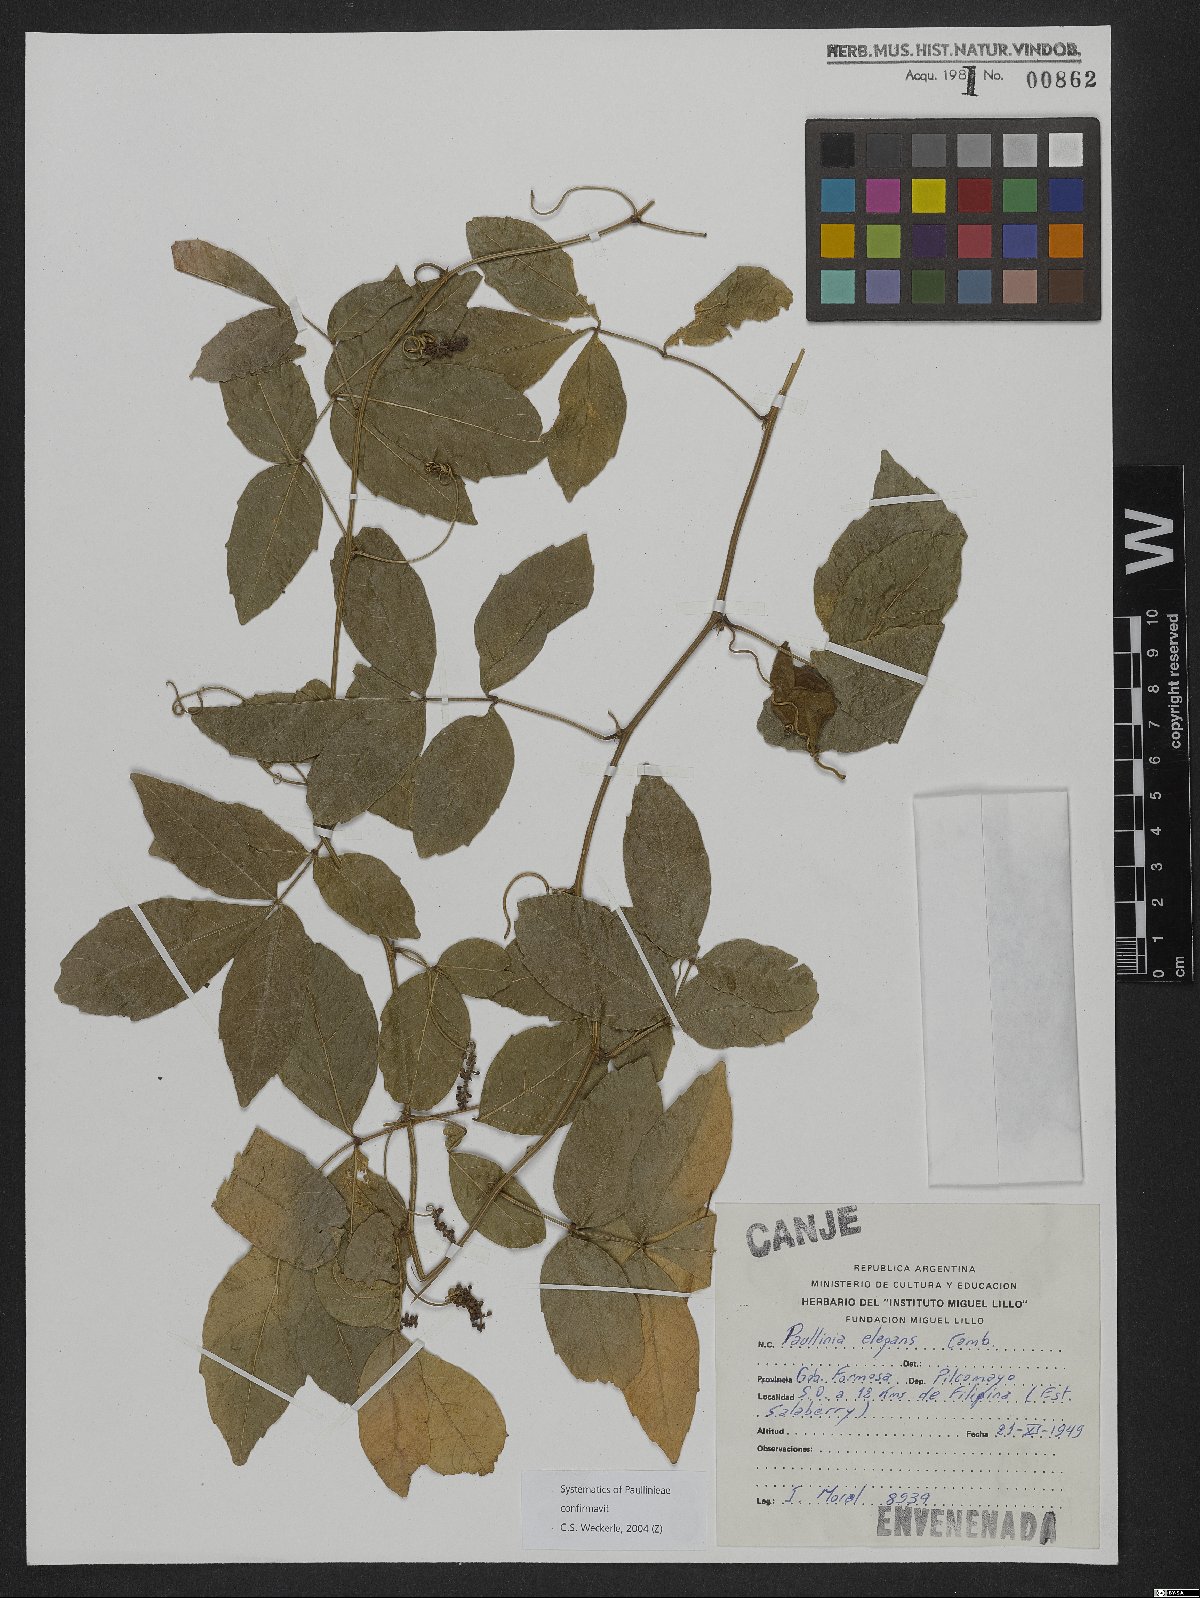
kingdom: Plantae
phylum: Tracheophyta
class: Magnoliopsida
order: Sapindales
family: Sapindaceae
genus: Paullinia
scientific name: Paullinia elegans
